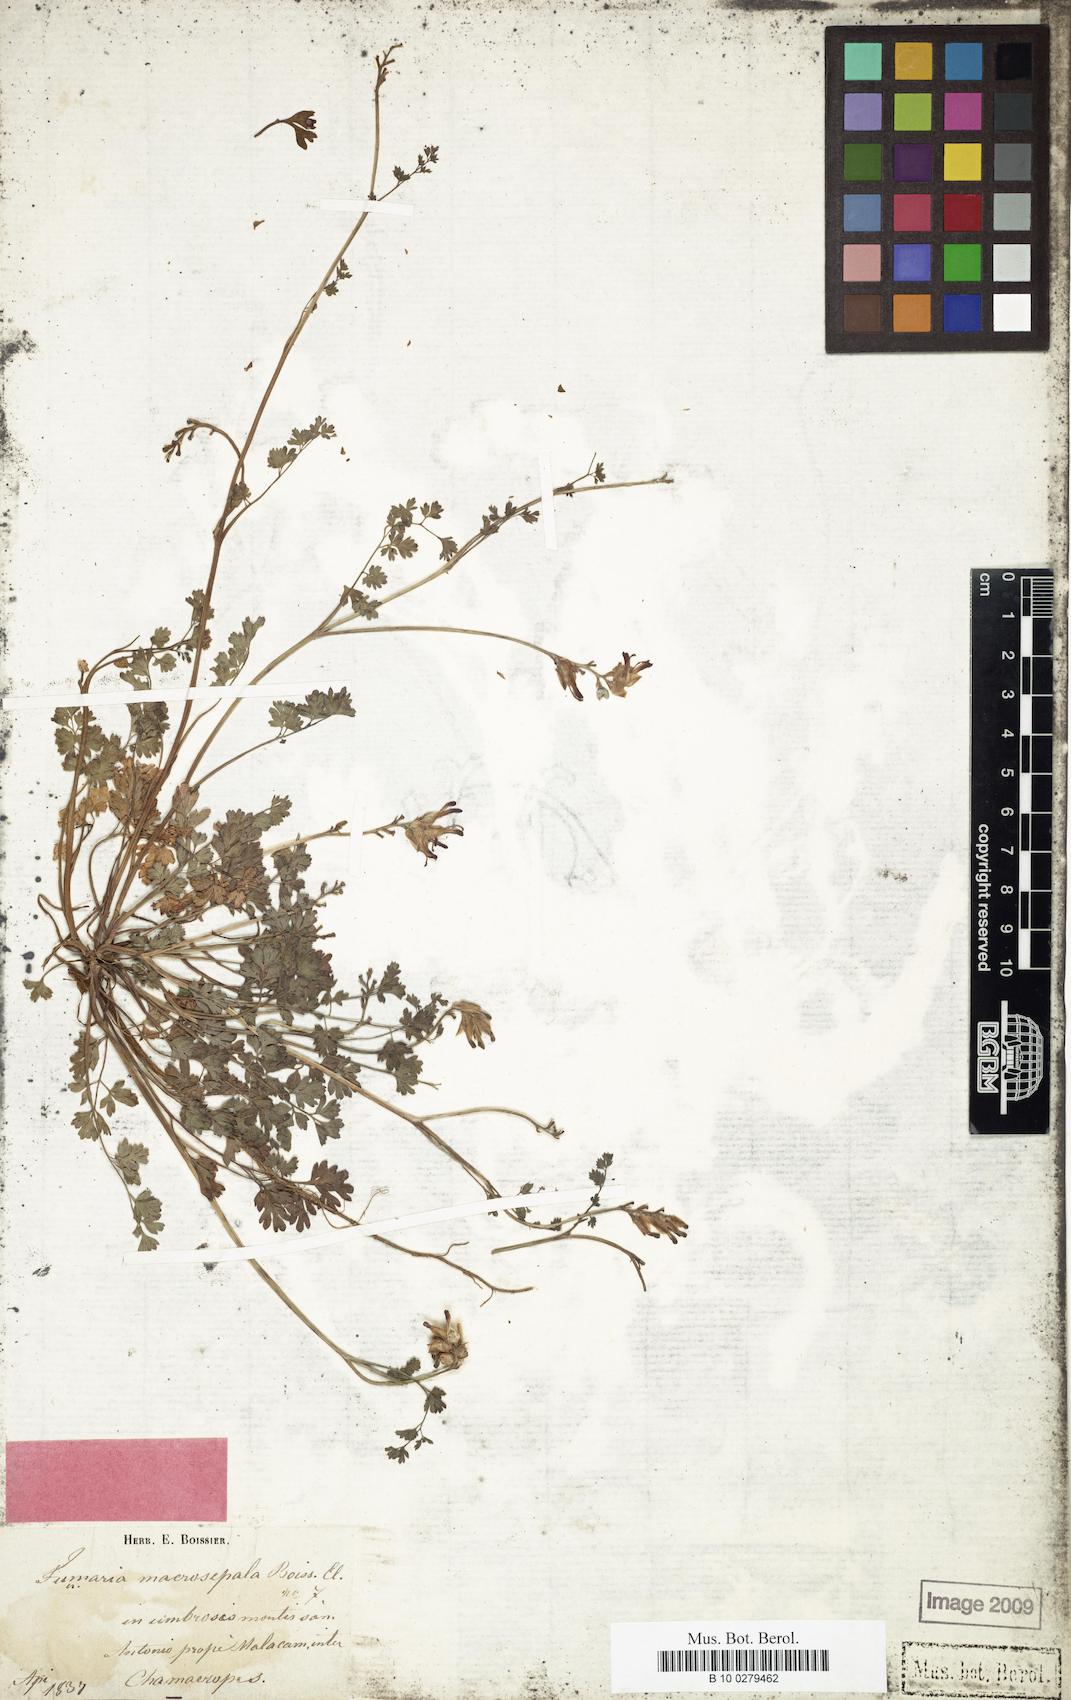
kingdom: Plantae
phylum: Tracheophyta
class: Magnoliopsida
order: Ranunculales
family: Papaveraceae
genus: Fumaria
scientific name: Fumaria macrosepala
